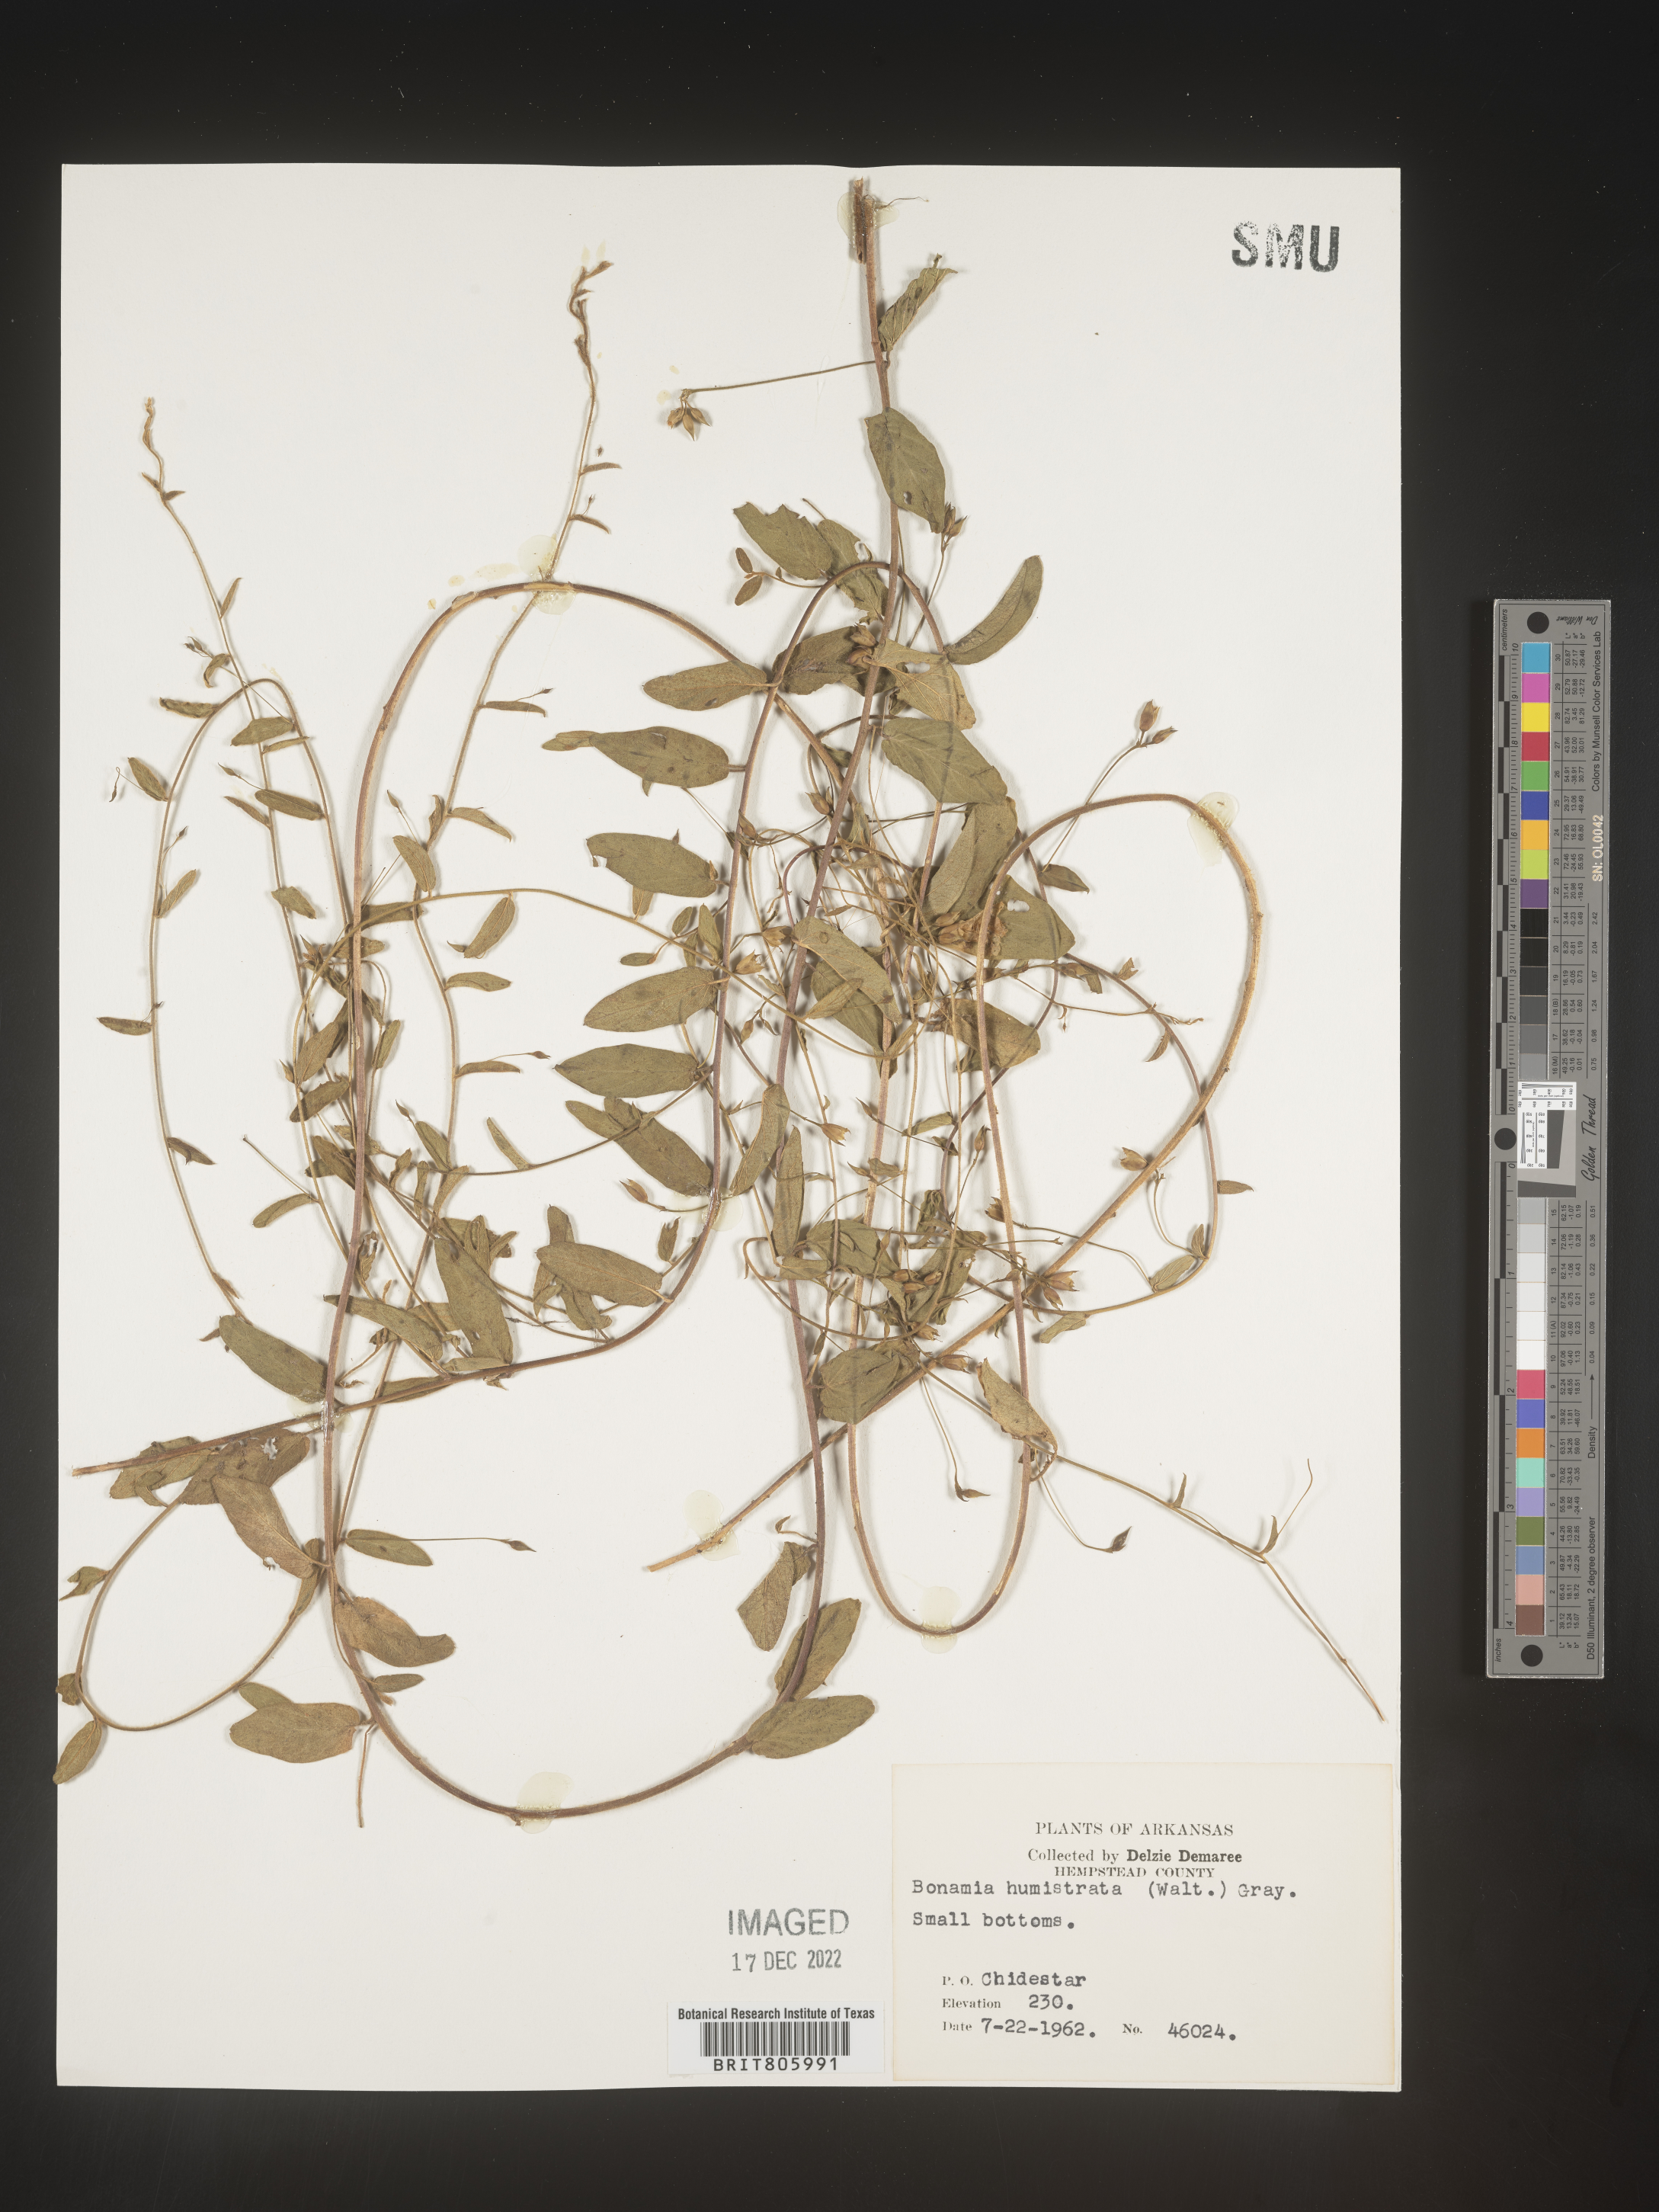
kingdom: Plantae
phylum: Tracheophyta
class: Magnoliopsida
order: Solanales
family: Convolvulaceae
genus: Stylisma
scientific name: Stylisma humistrata
